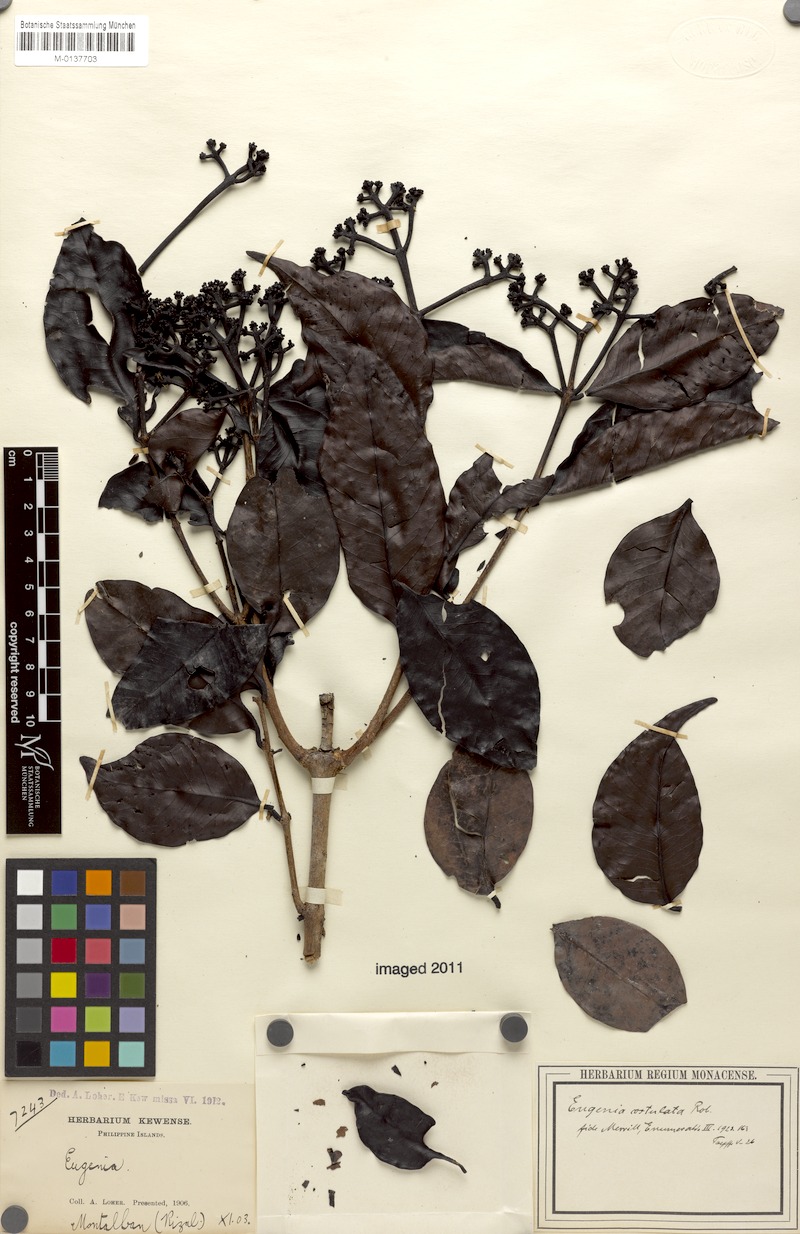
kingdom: Plantae
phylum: Tracheophyta
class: Magnoliopsida
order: Myrtales
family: Myrtaceae
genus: Syzygium
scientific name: Syzygium costulatum
